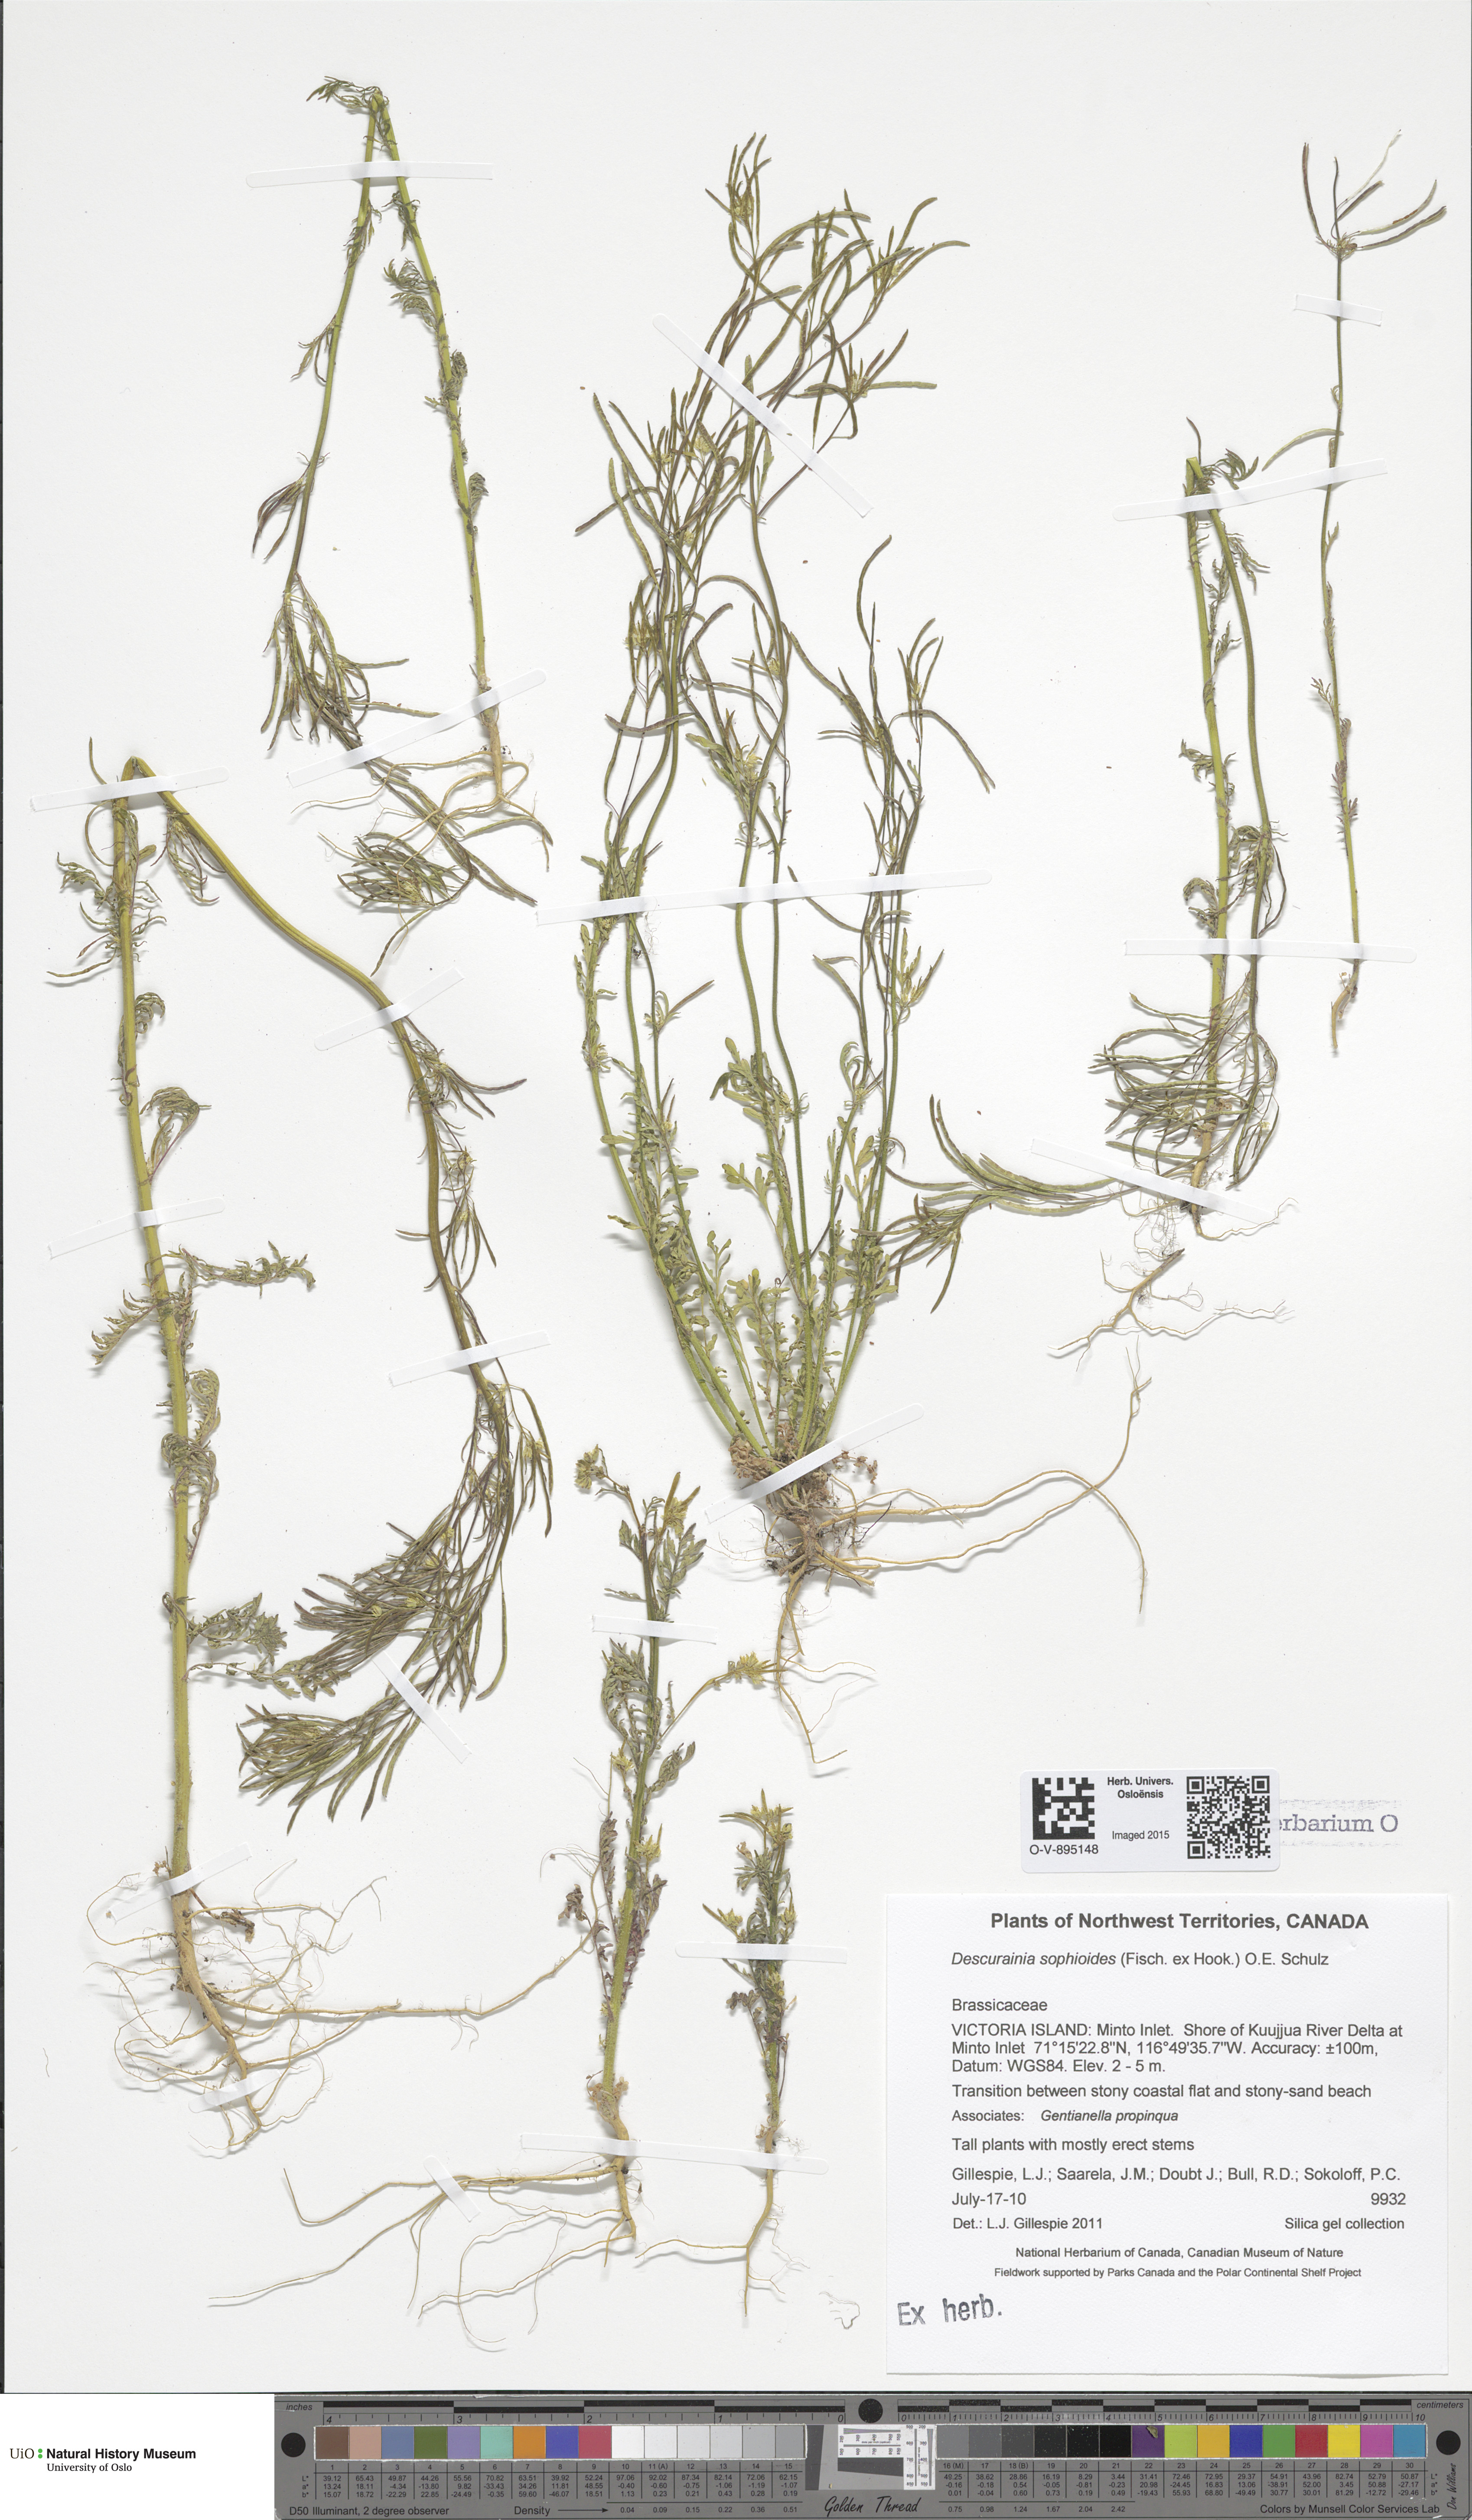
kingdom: Plantae
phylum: Tracheophyta
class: Magnoliopsida
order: Brassicales
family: Brassicaceae
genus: Descurainia
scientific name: Descurainia sophioides
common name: Northern tansy mustard
